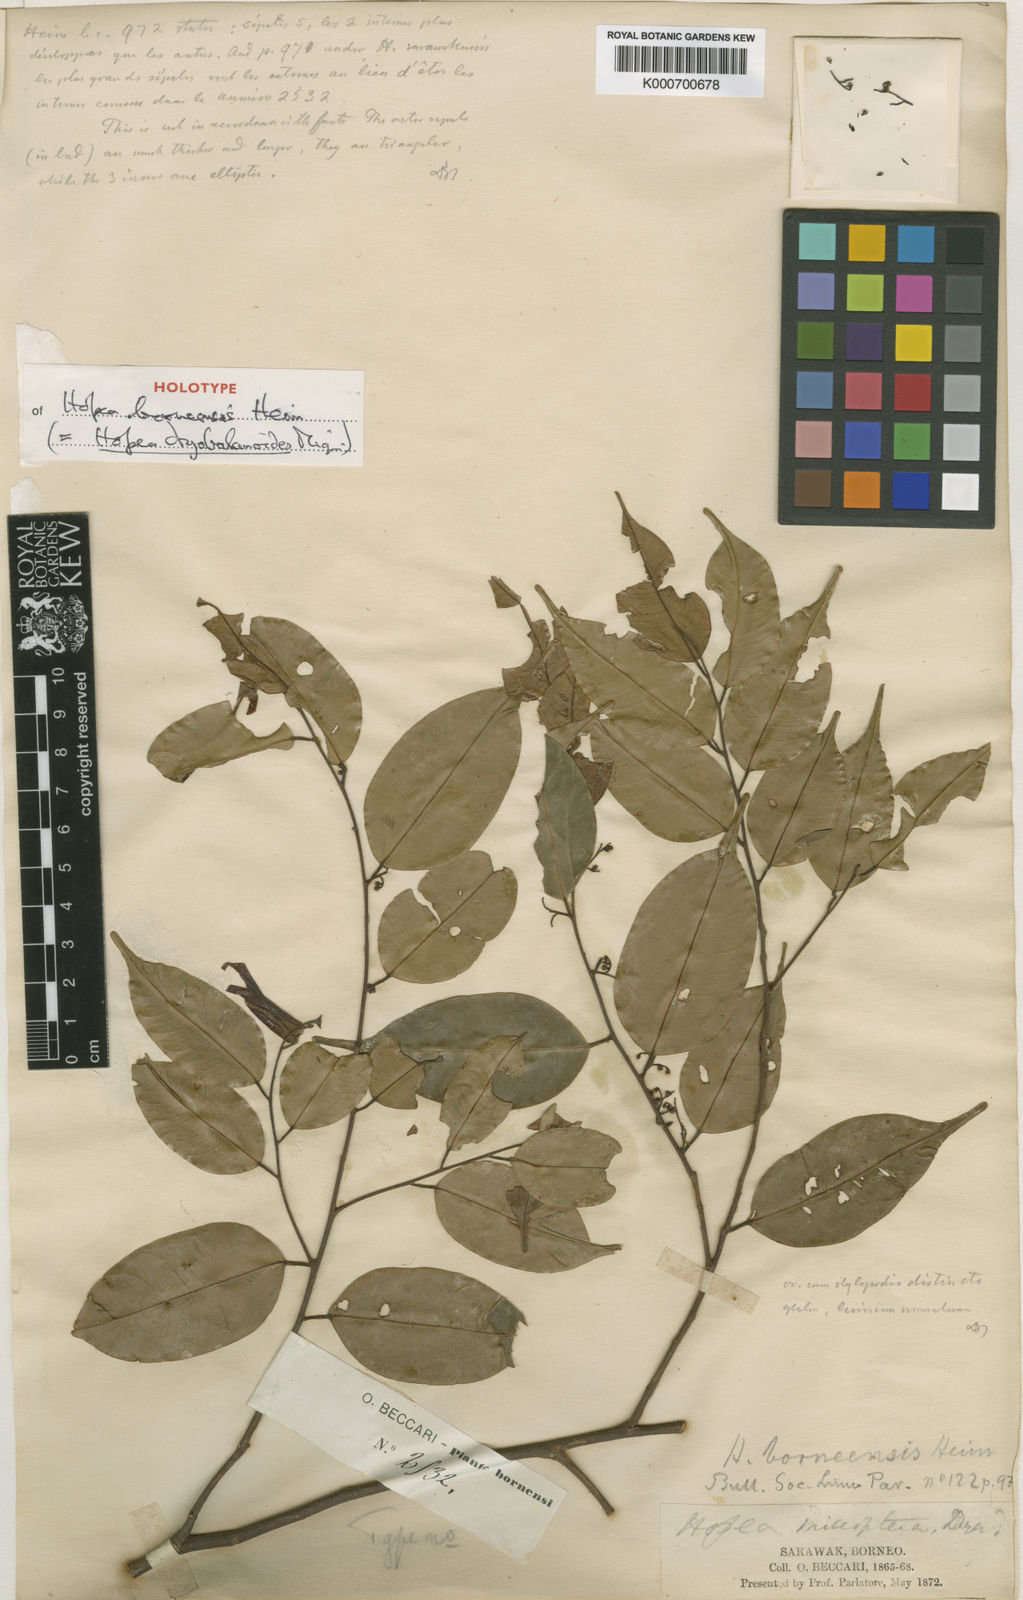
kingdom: Plantae
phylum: Tracheophyta
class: Magnoliopsida
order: Malvales
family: Dipterocarpaceae
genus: Hopea
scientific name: Hopea dryobalanoides
